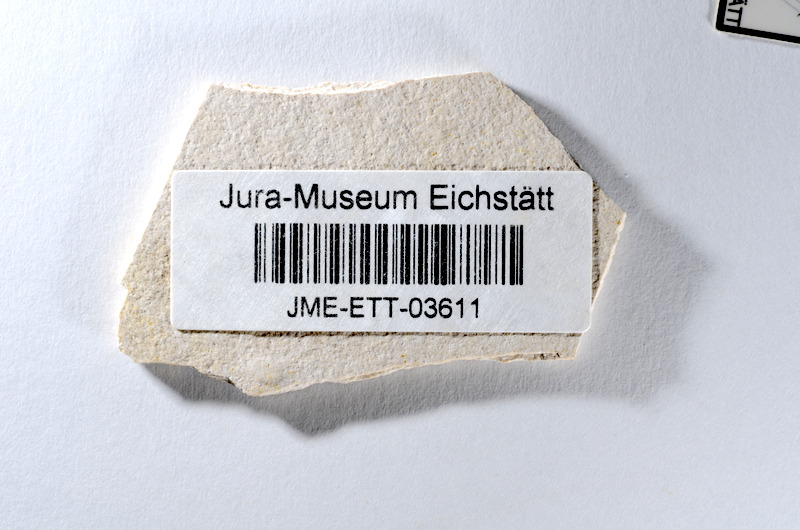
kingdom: Animalia
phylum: Chordata
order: Salmoniformes
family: Orthogonikleithridae
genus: Orthogonikleithrus
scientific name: Orthogonikleithrus hoelli
